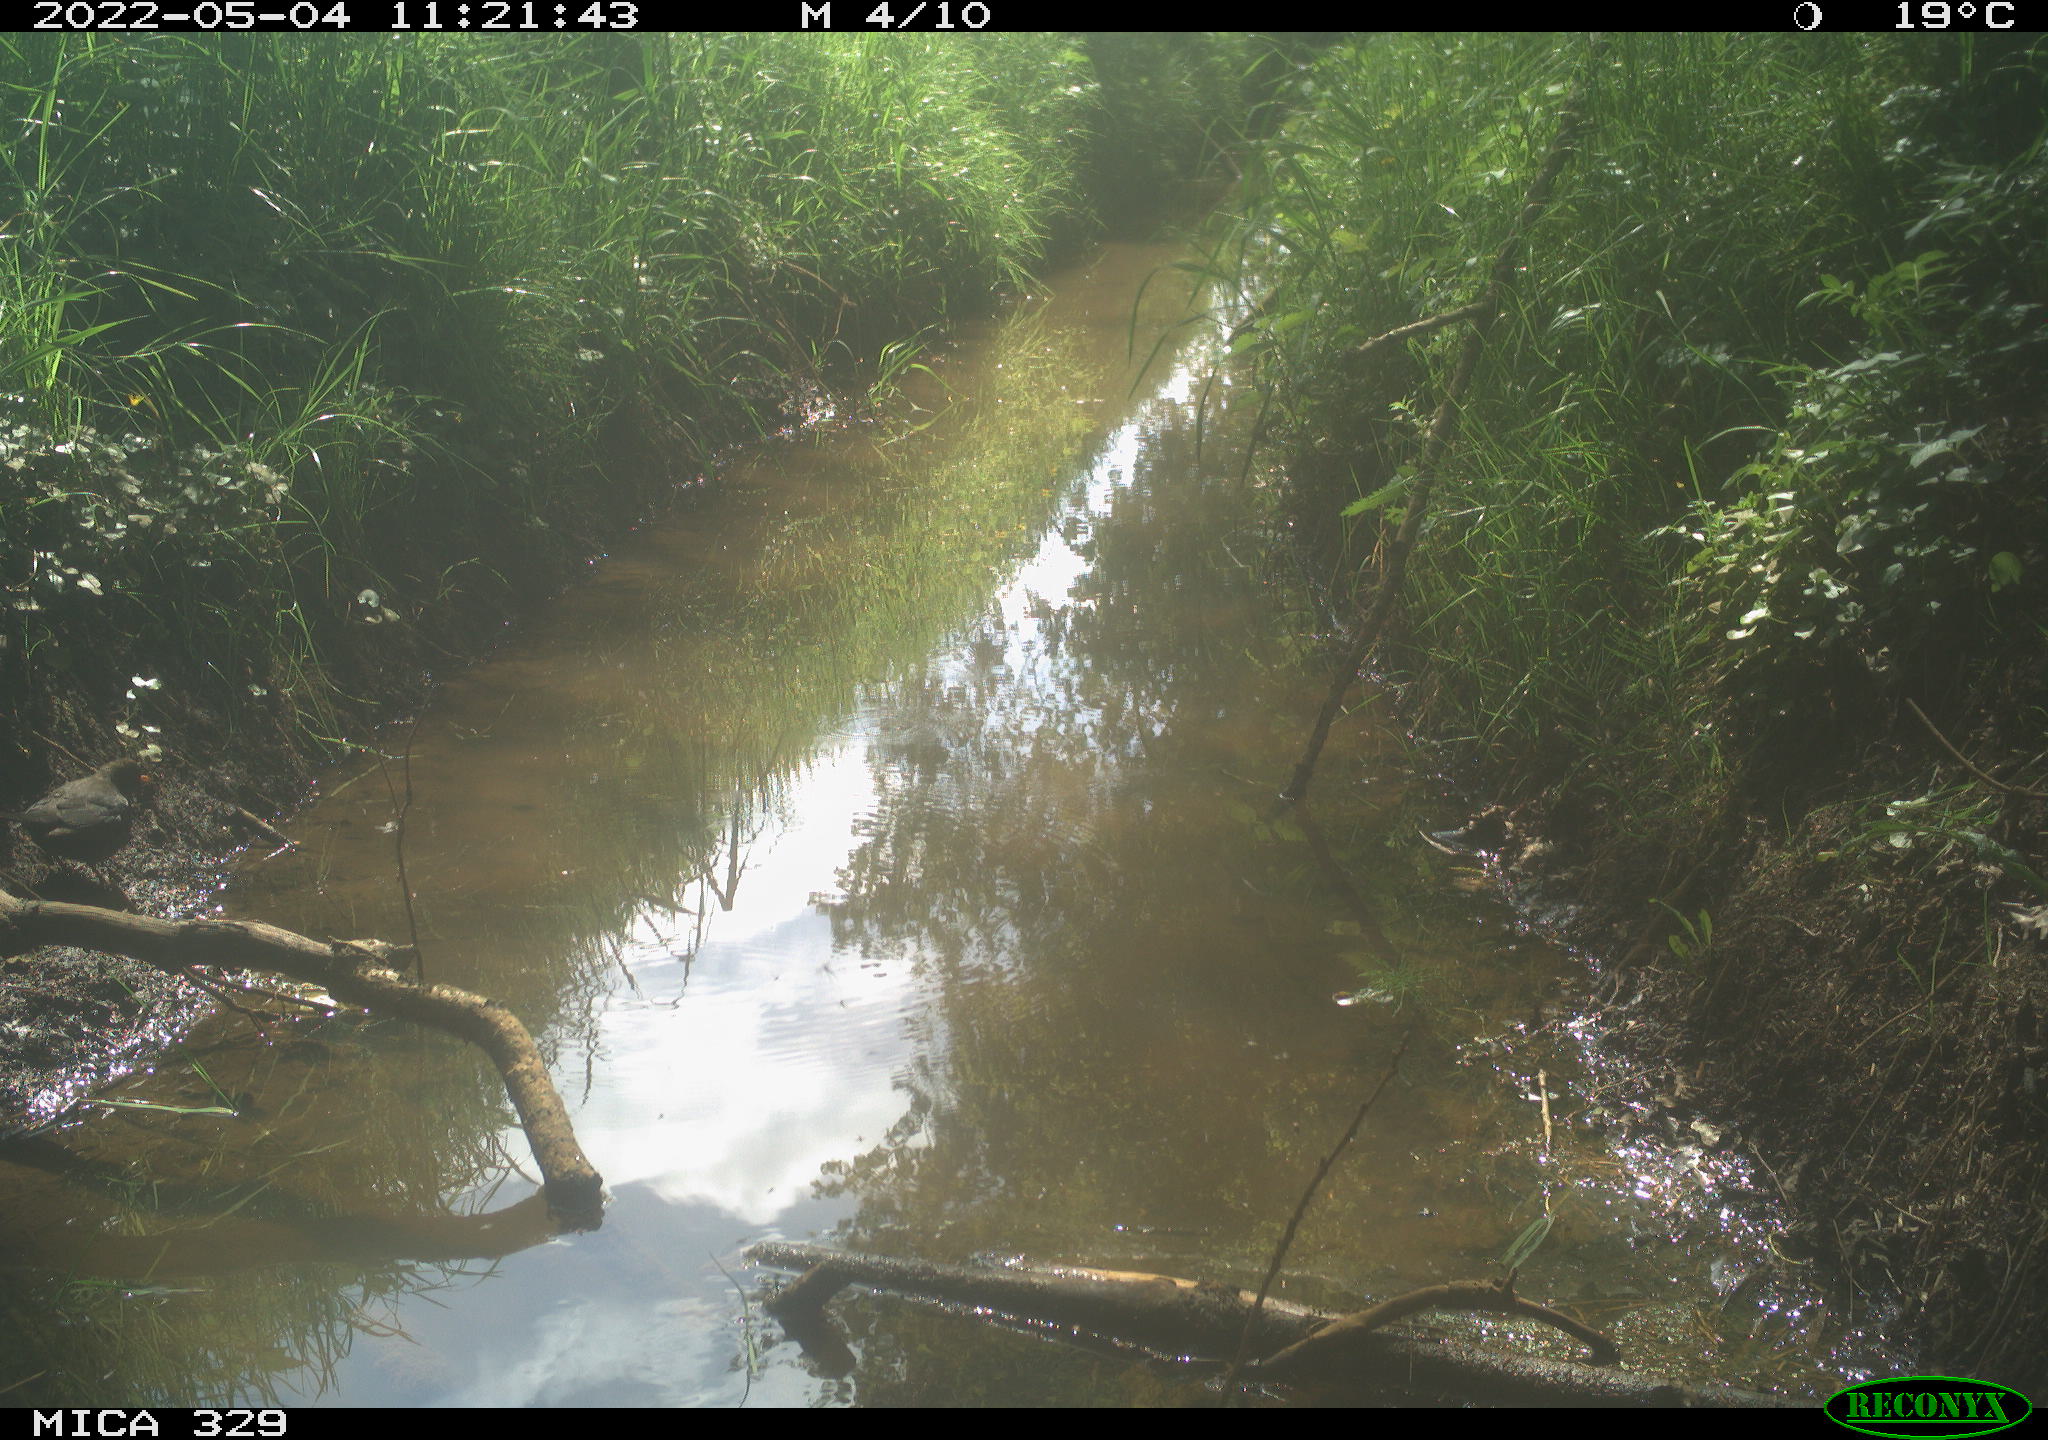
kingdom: Animalia
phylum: Chordata
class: Aves
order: Passeriformes
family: Turdidae
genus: Turdus
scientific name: Turdus merula
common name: Common blackbird
